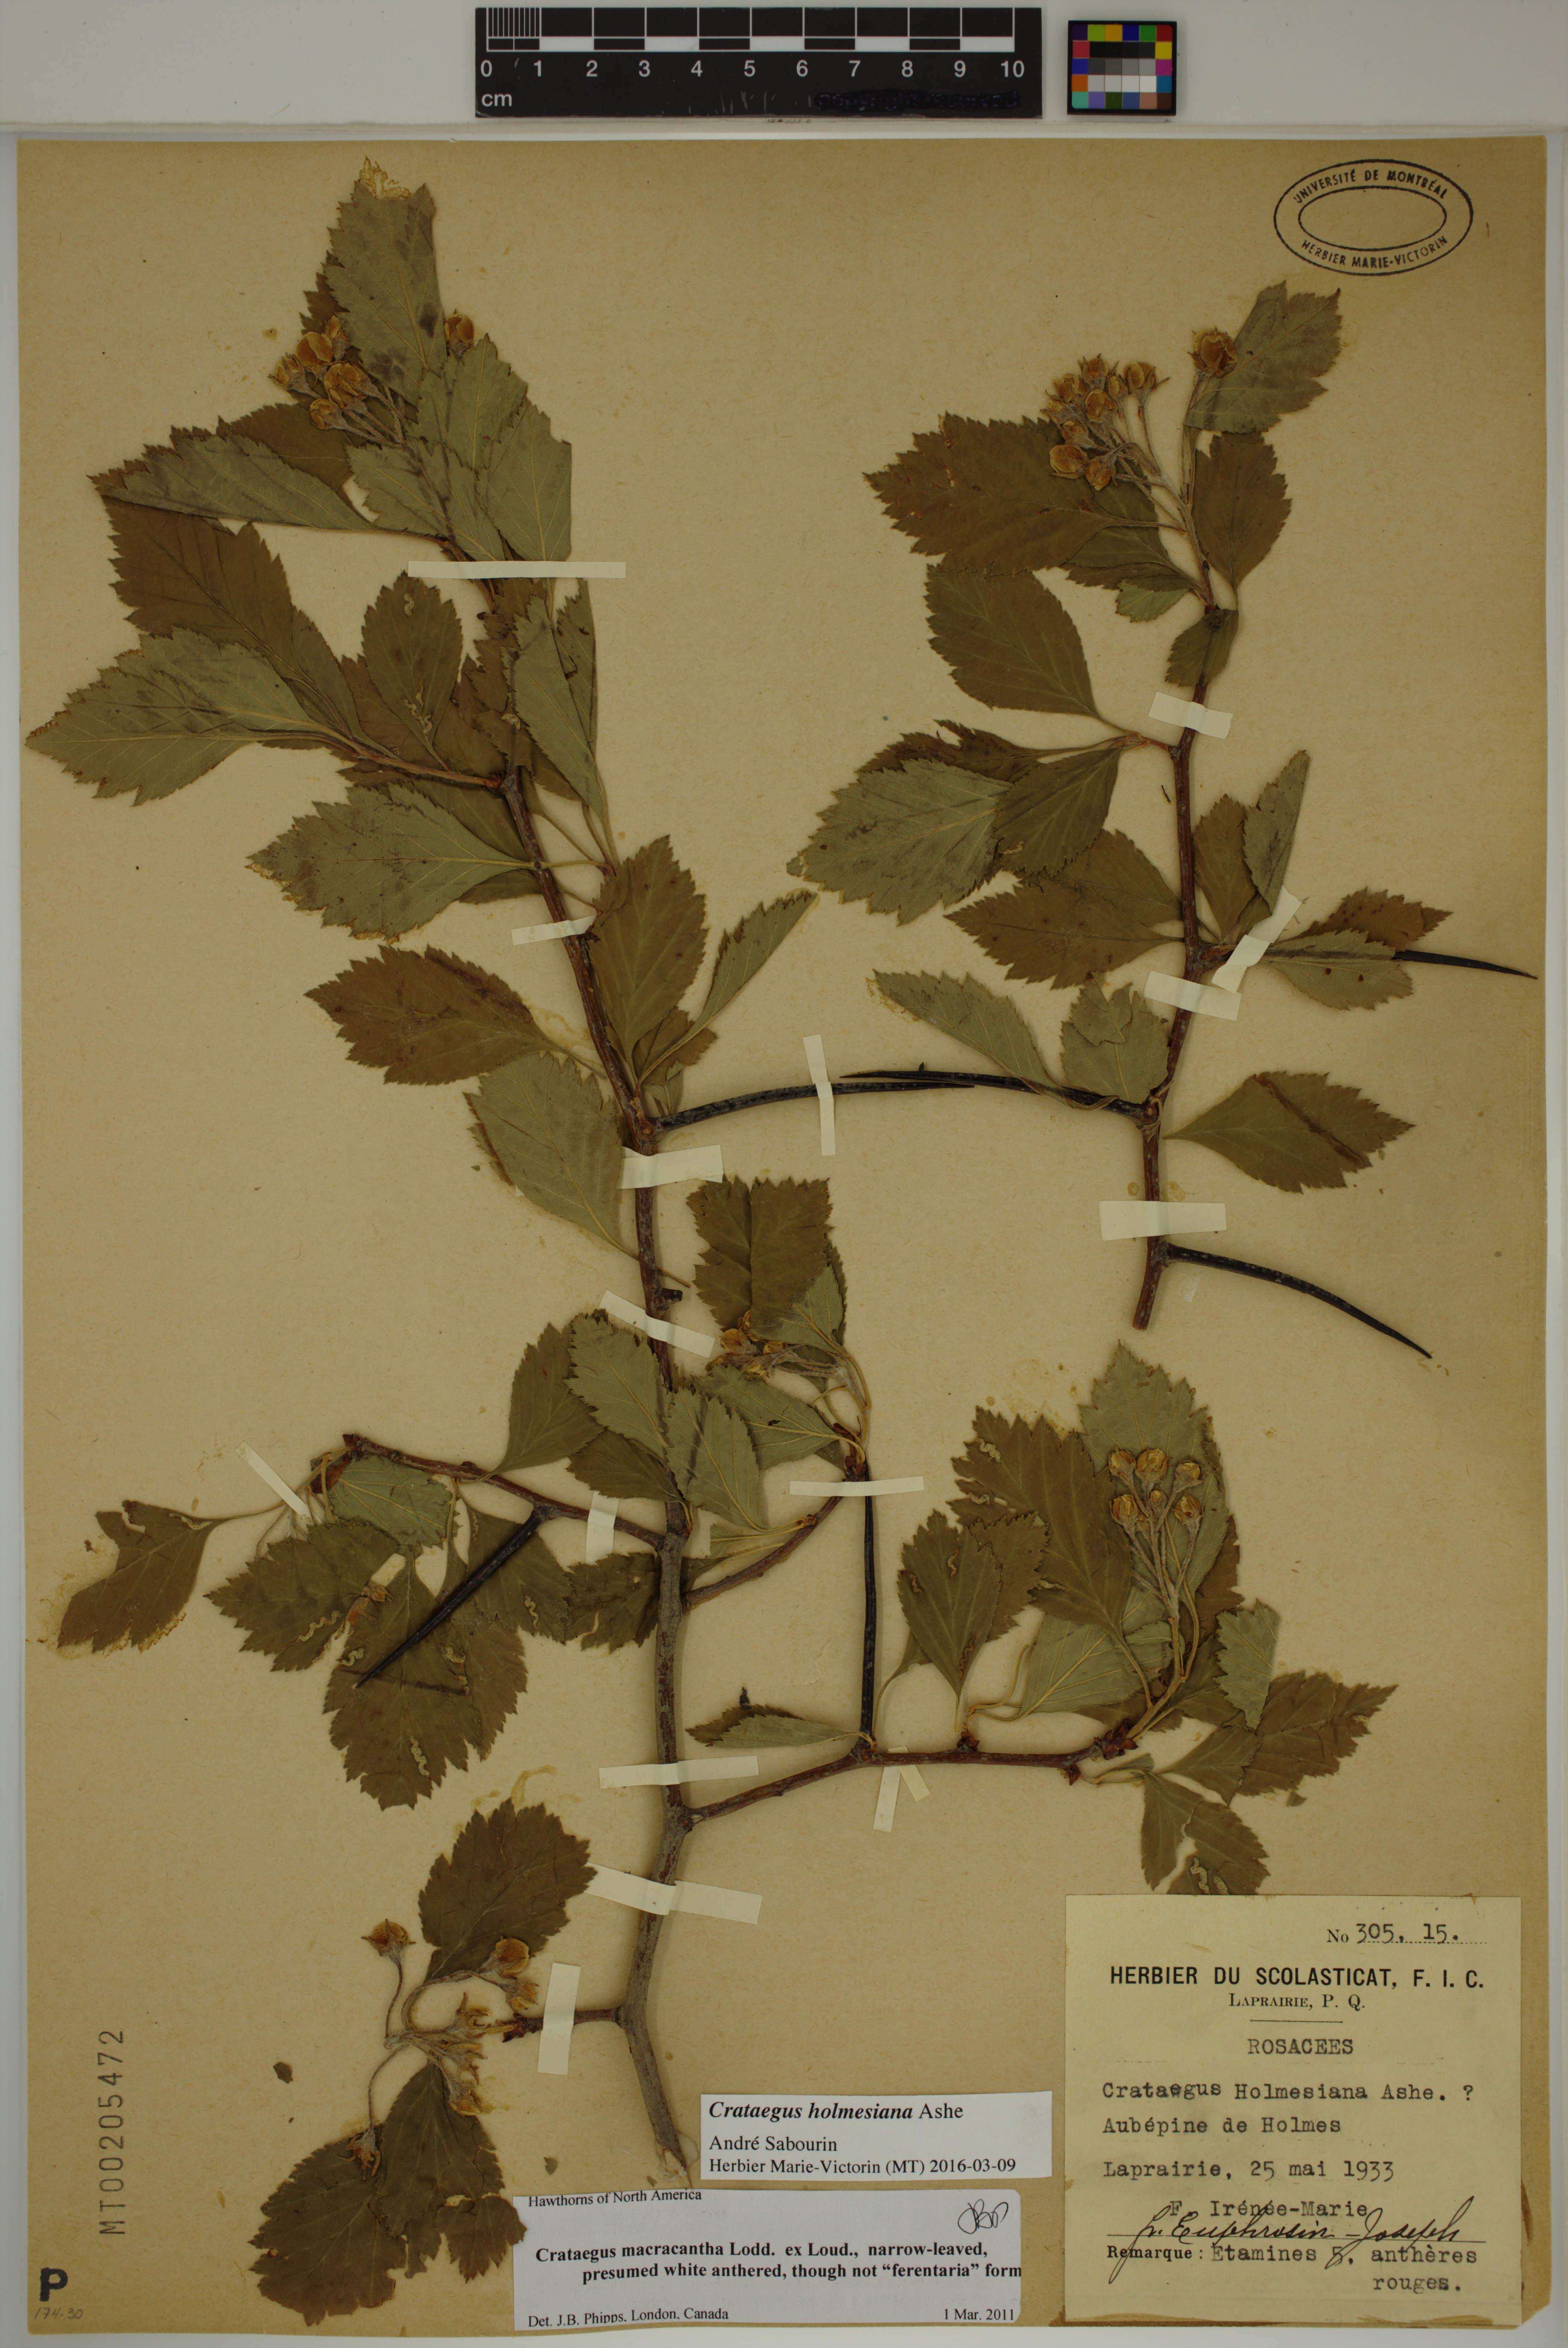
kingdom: Plantae
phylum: Tracheophyta
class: Magnoliopsida
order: Rosales
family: Rosaceae
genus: Crataegus
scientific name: Crataegus holmesiana
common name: Holmes' hawthorn
